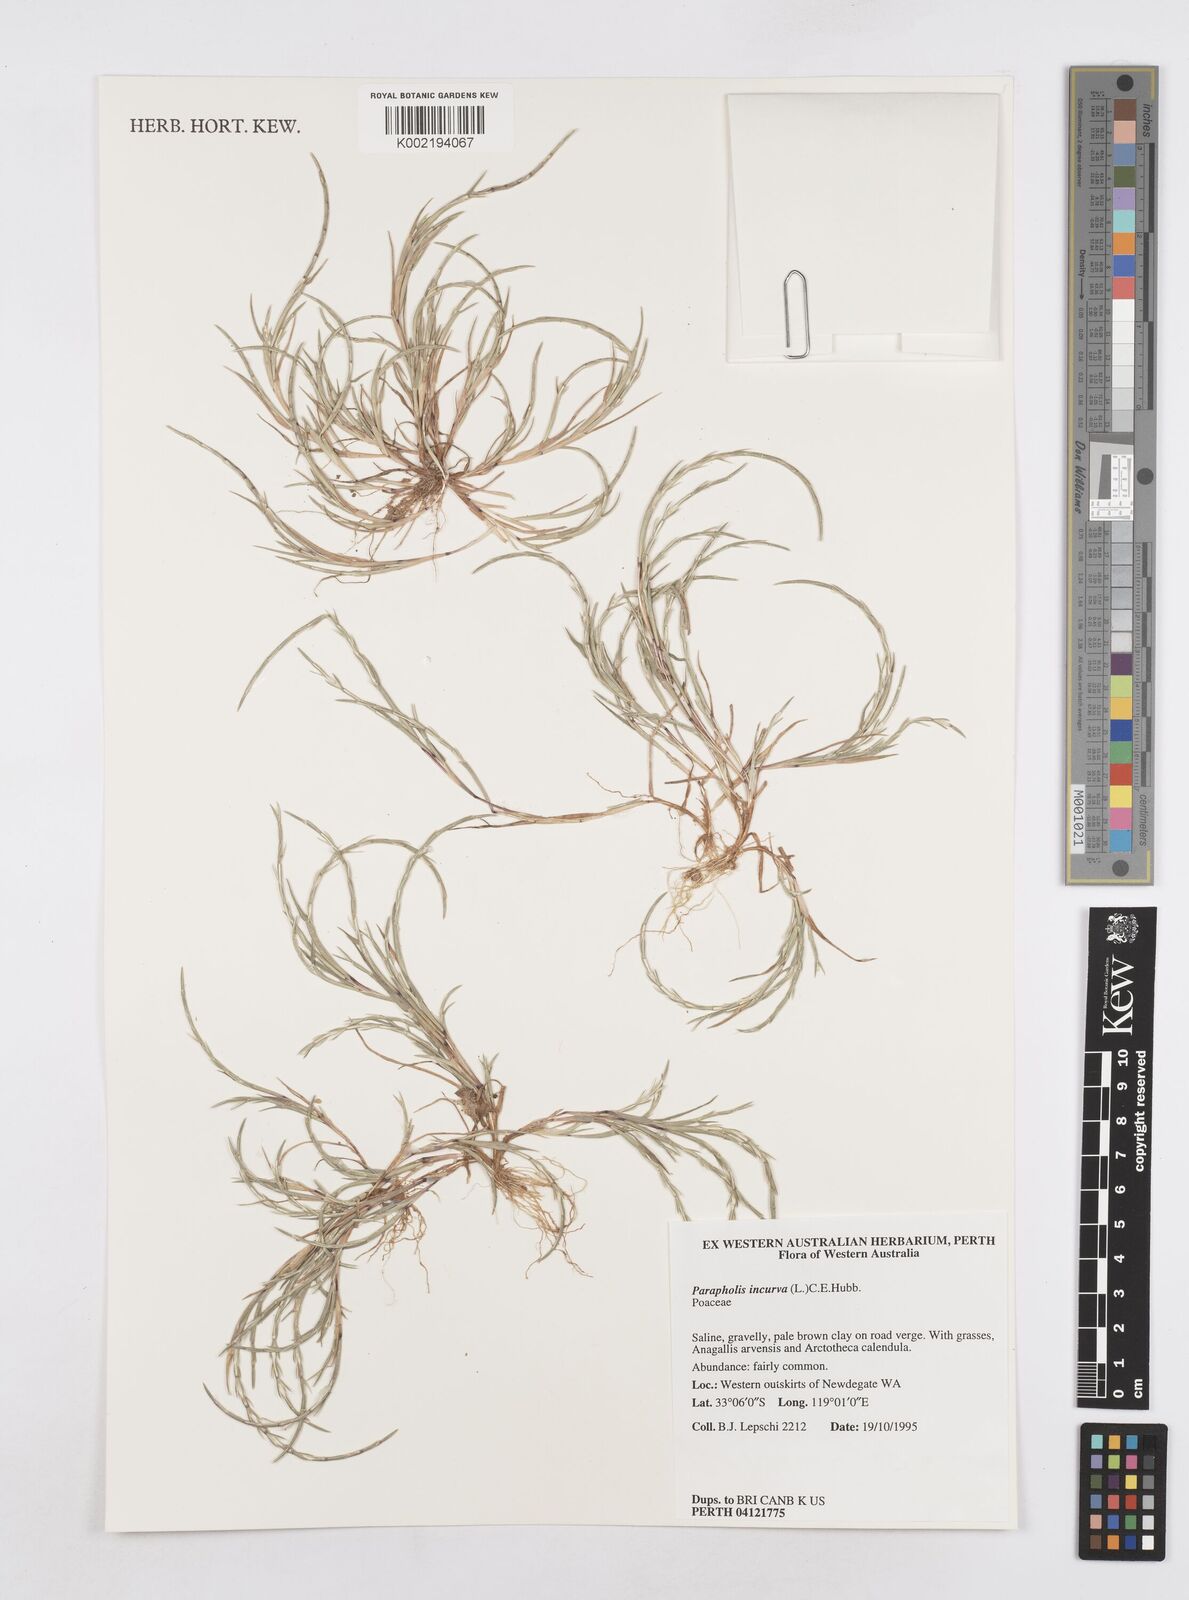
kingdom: Plantae
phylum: Tracheophyta
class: Liliopsida
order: Poales
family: Poaceae
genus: Parapholis
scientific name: Parapholis incurva
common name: Curved sicklegrass
